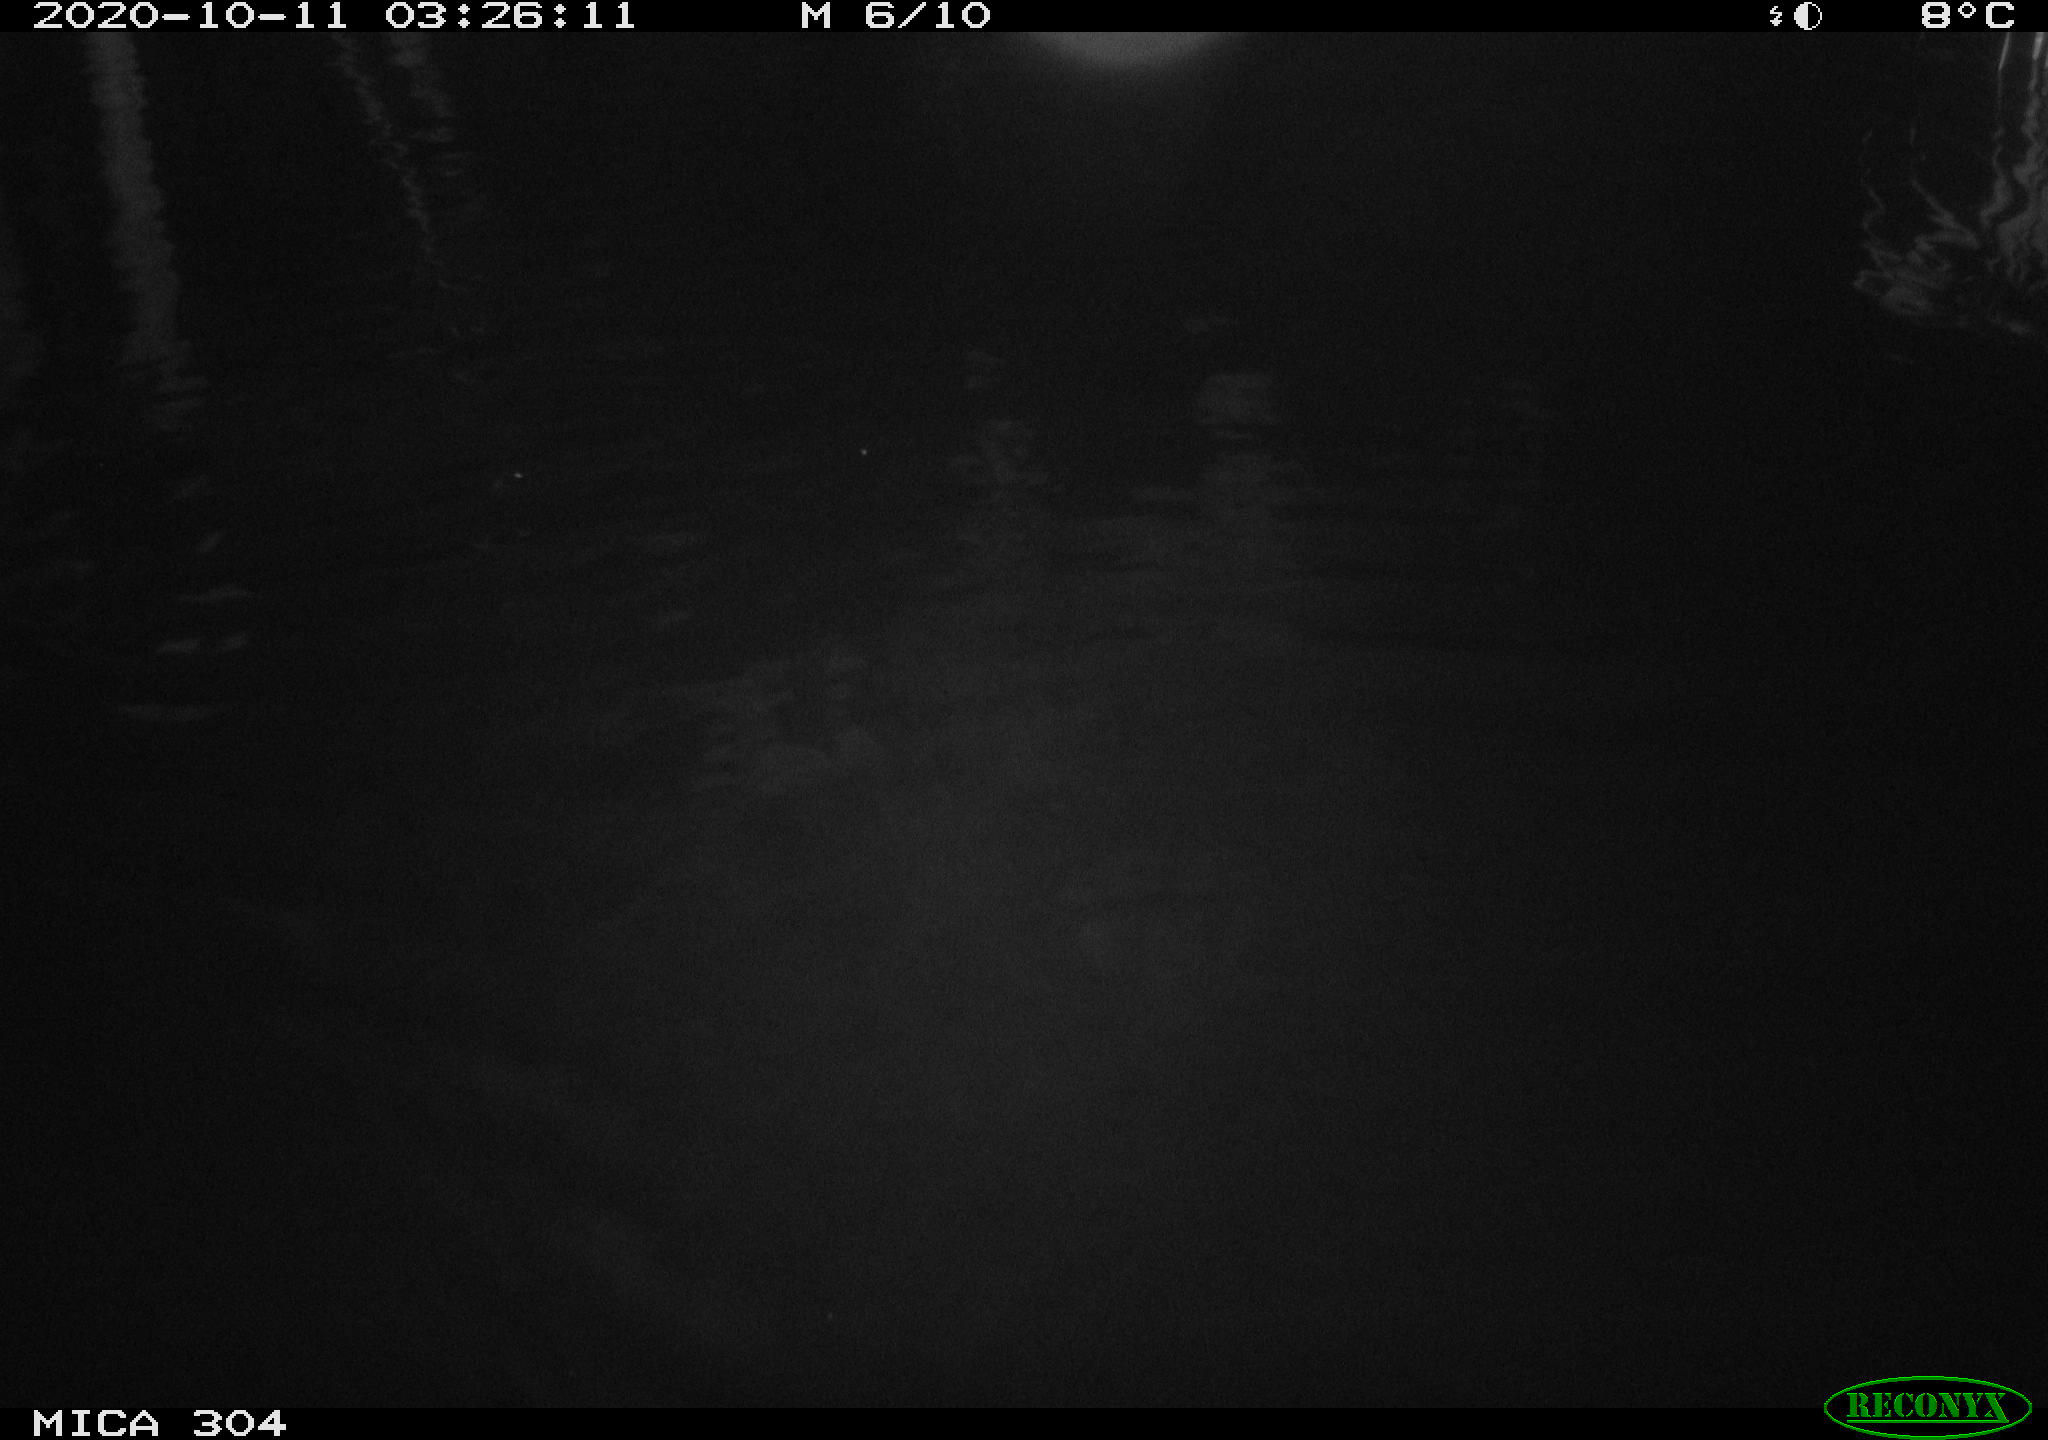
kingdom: Animalia
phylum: Chordata
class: Mammalia
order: Rodentia
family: Cricetidae
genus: Ondatra
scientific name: Ondatra zibethicus
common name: Muskrat
